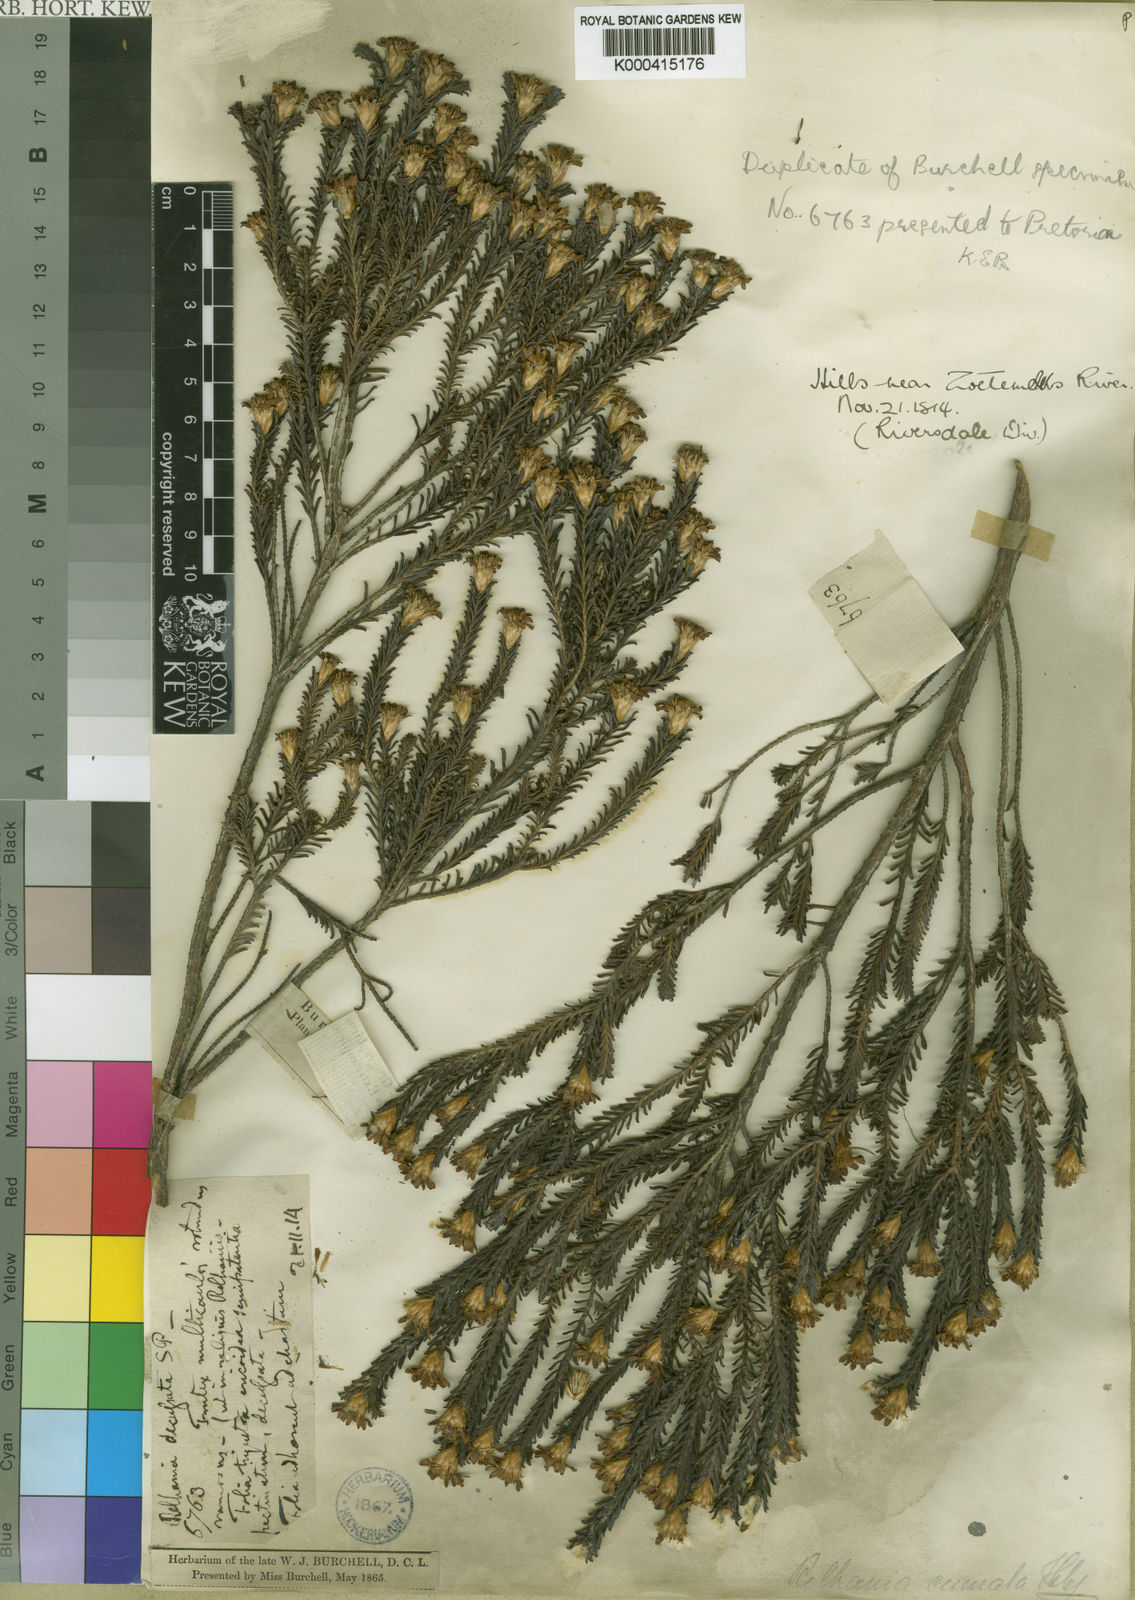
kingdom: Plantae
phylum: Tracheophyta
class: Magnoliopsida
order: Asterales
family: Asteraceae
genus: Oedera
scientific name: Oedera uniflora
